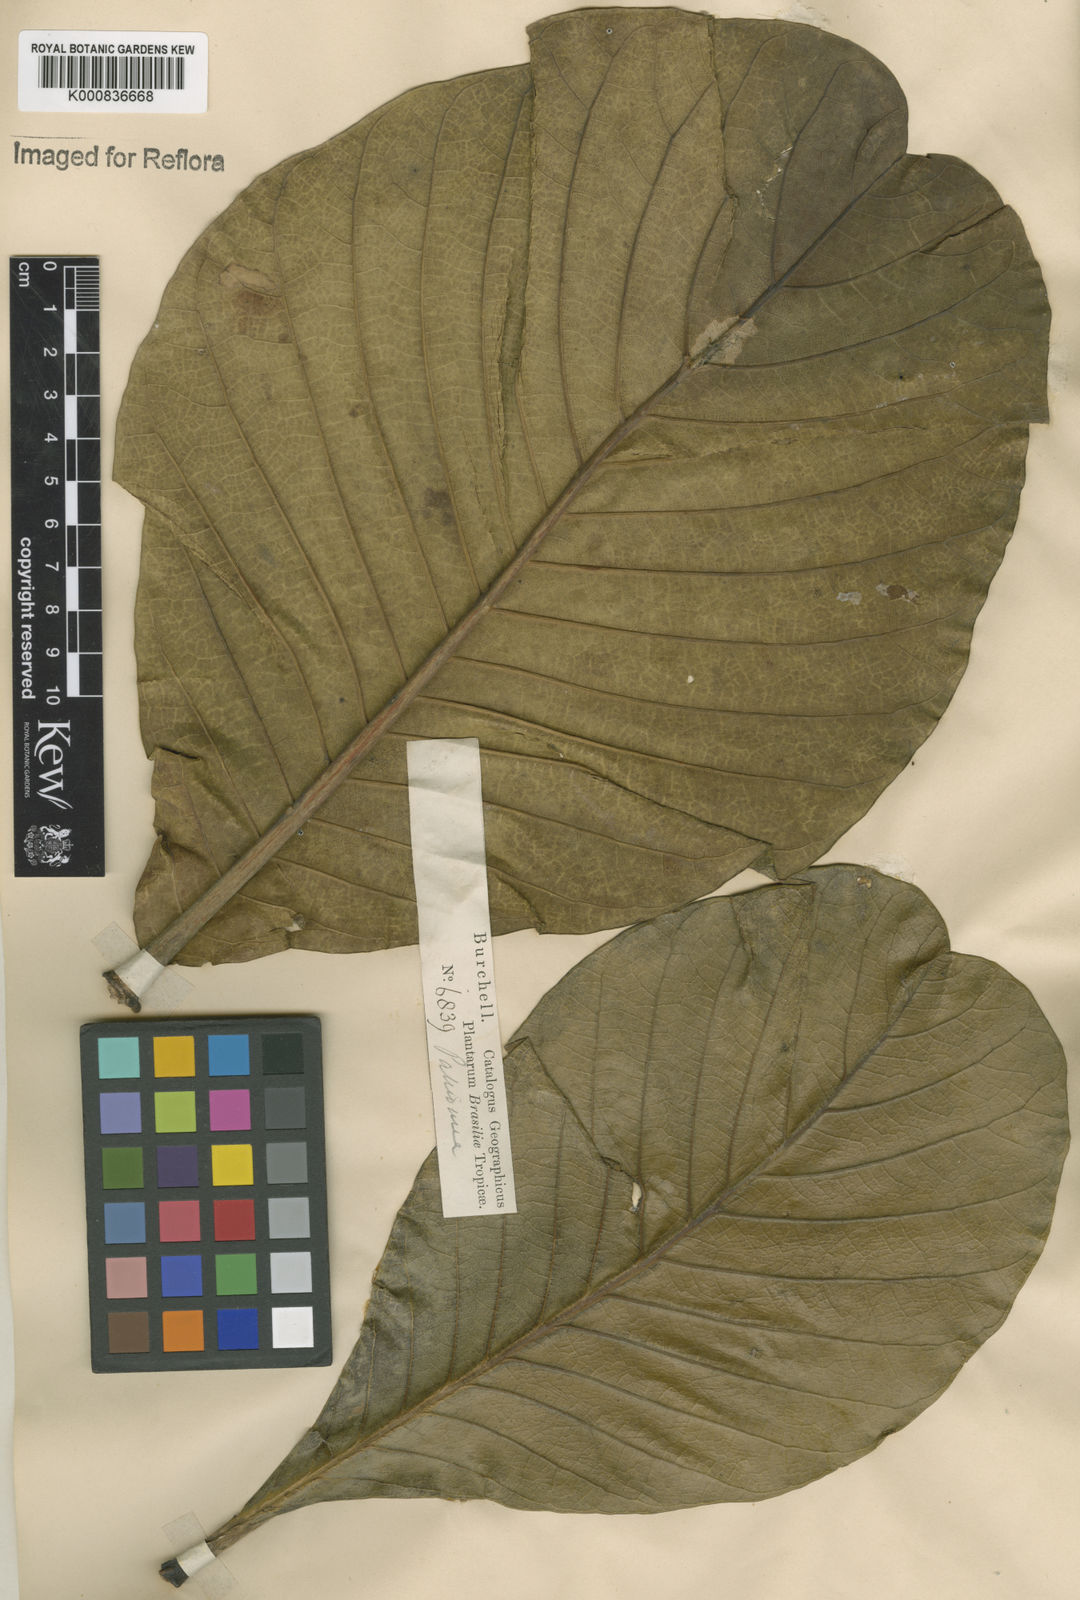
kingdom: Plantae
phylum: Tracheophyta
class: Magnoliopsida
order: Gentianales
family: Rubiaceae
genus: Palicourea
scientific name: Palicourea rigida
